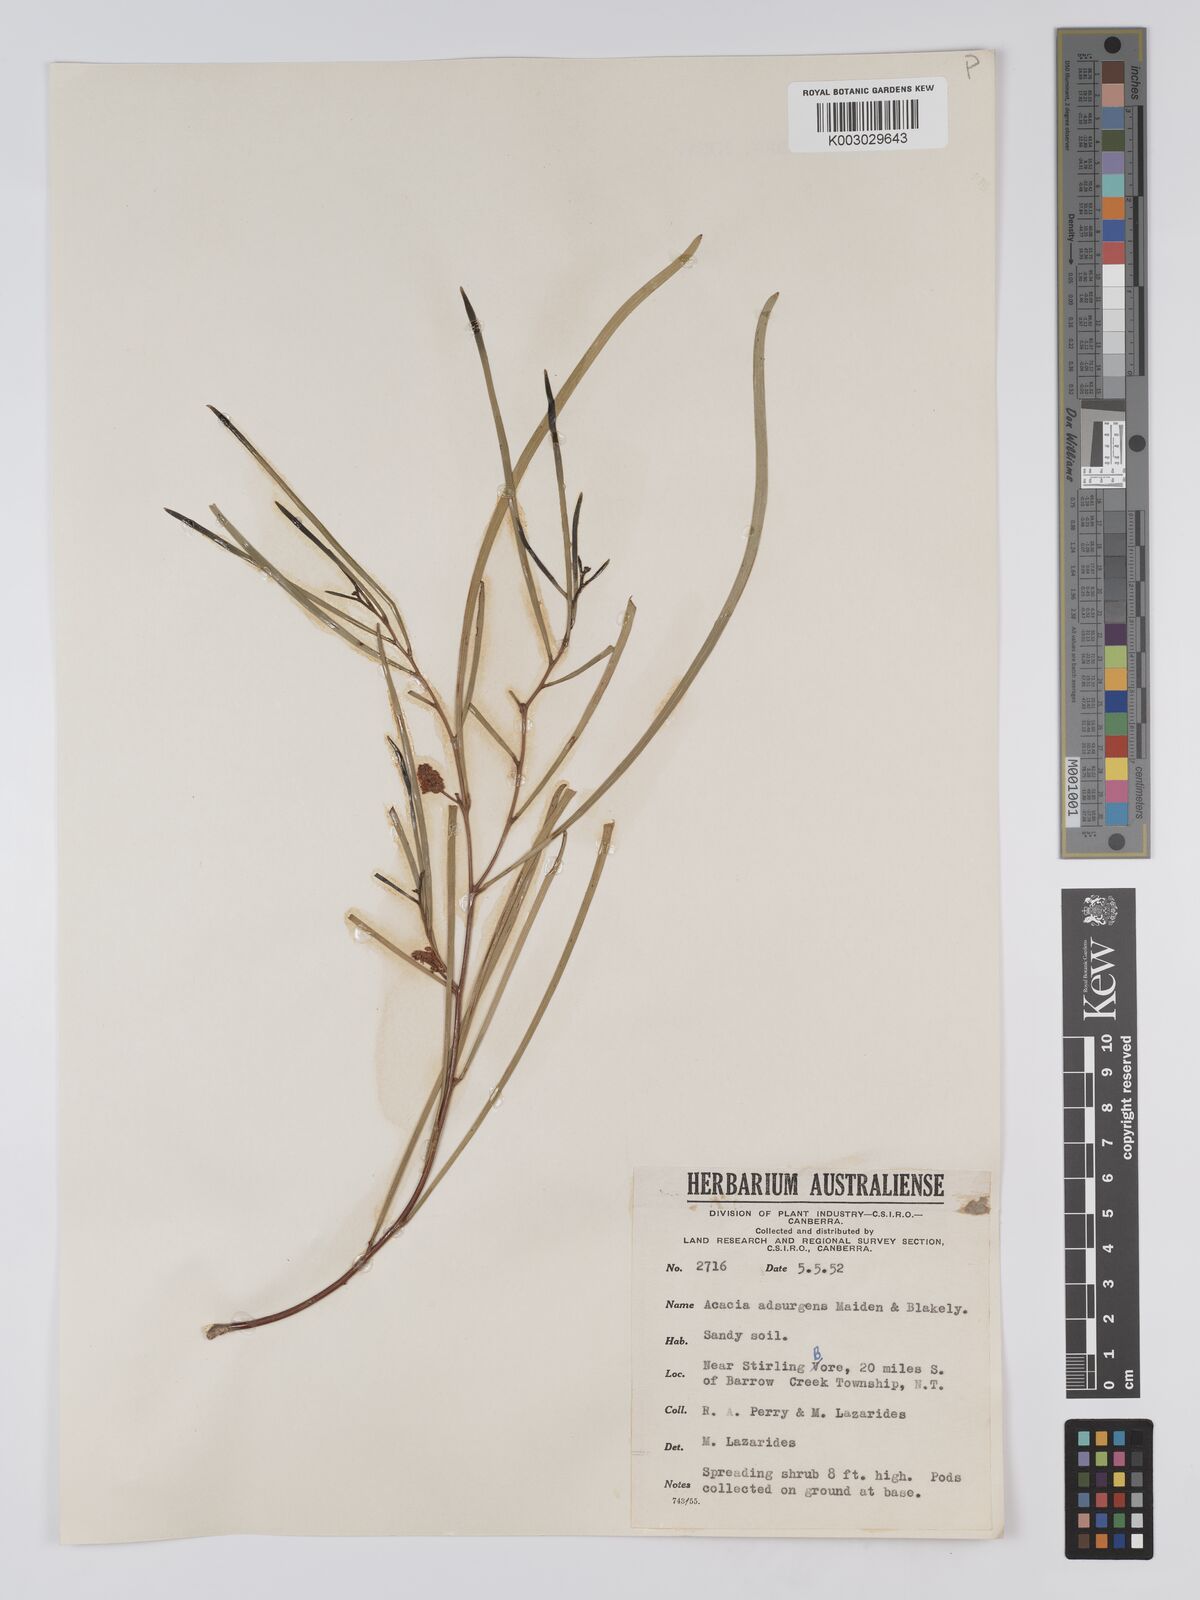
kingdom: Plantae
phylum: Tracheophyta
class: Magnoliopsida
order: Fabales
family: Fabaceae
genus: Acacia
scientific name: Acacia adsurgens
